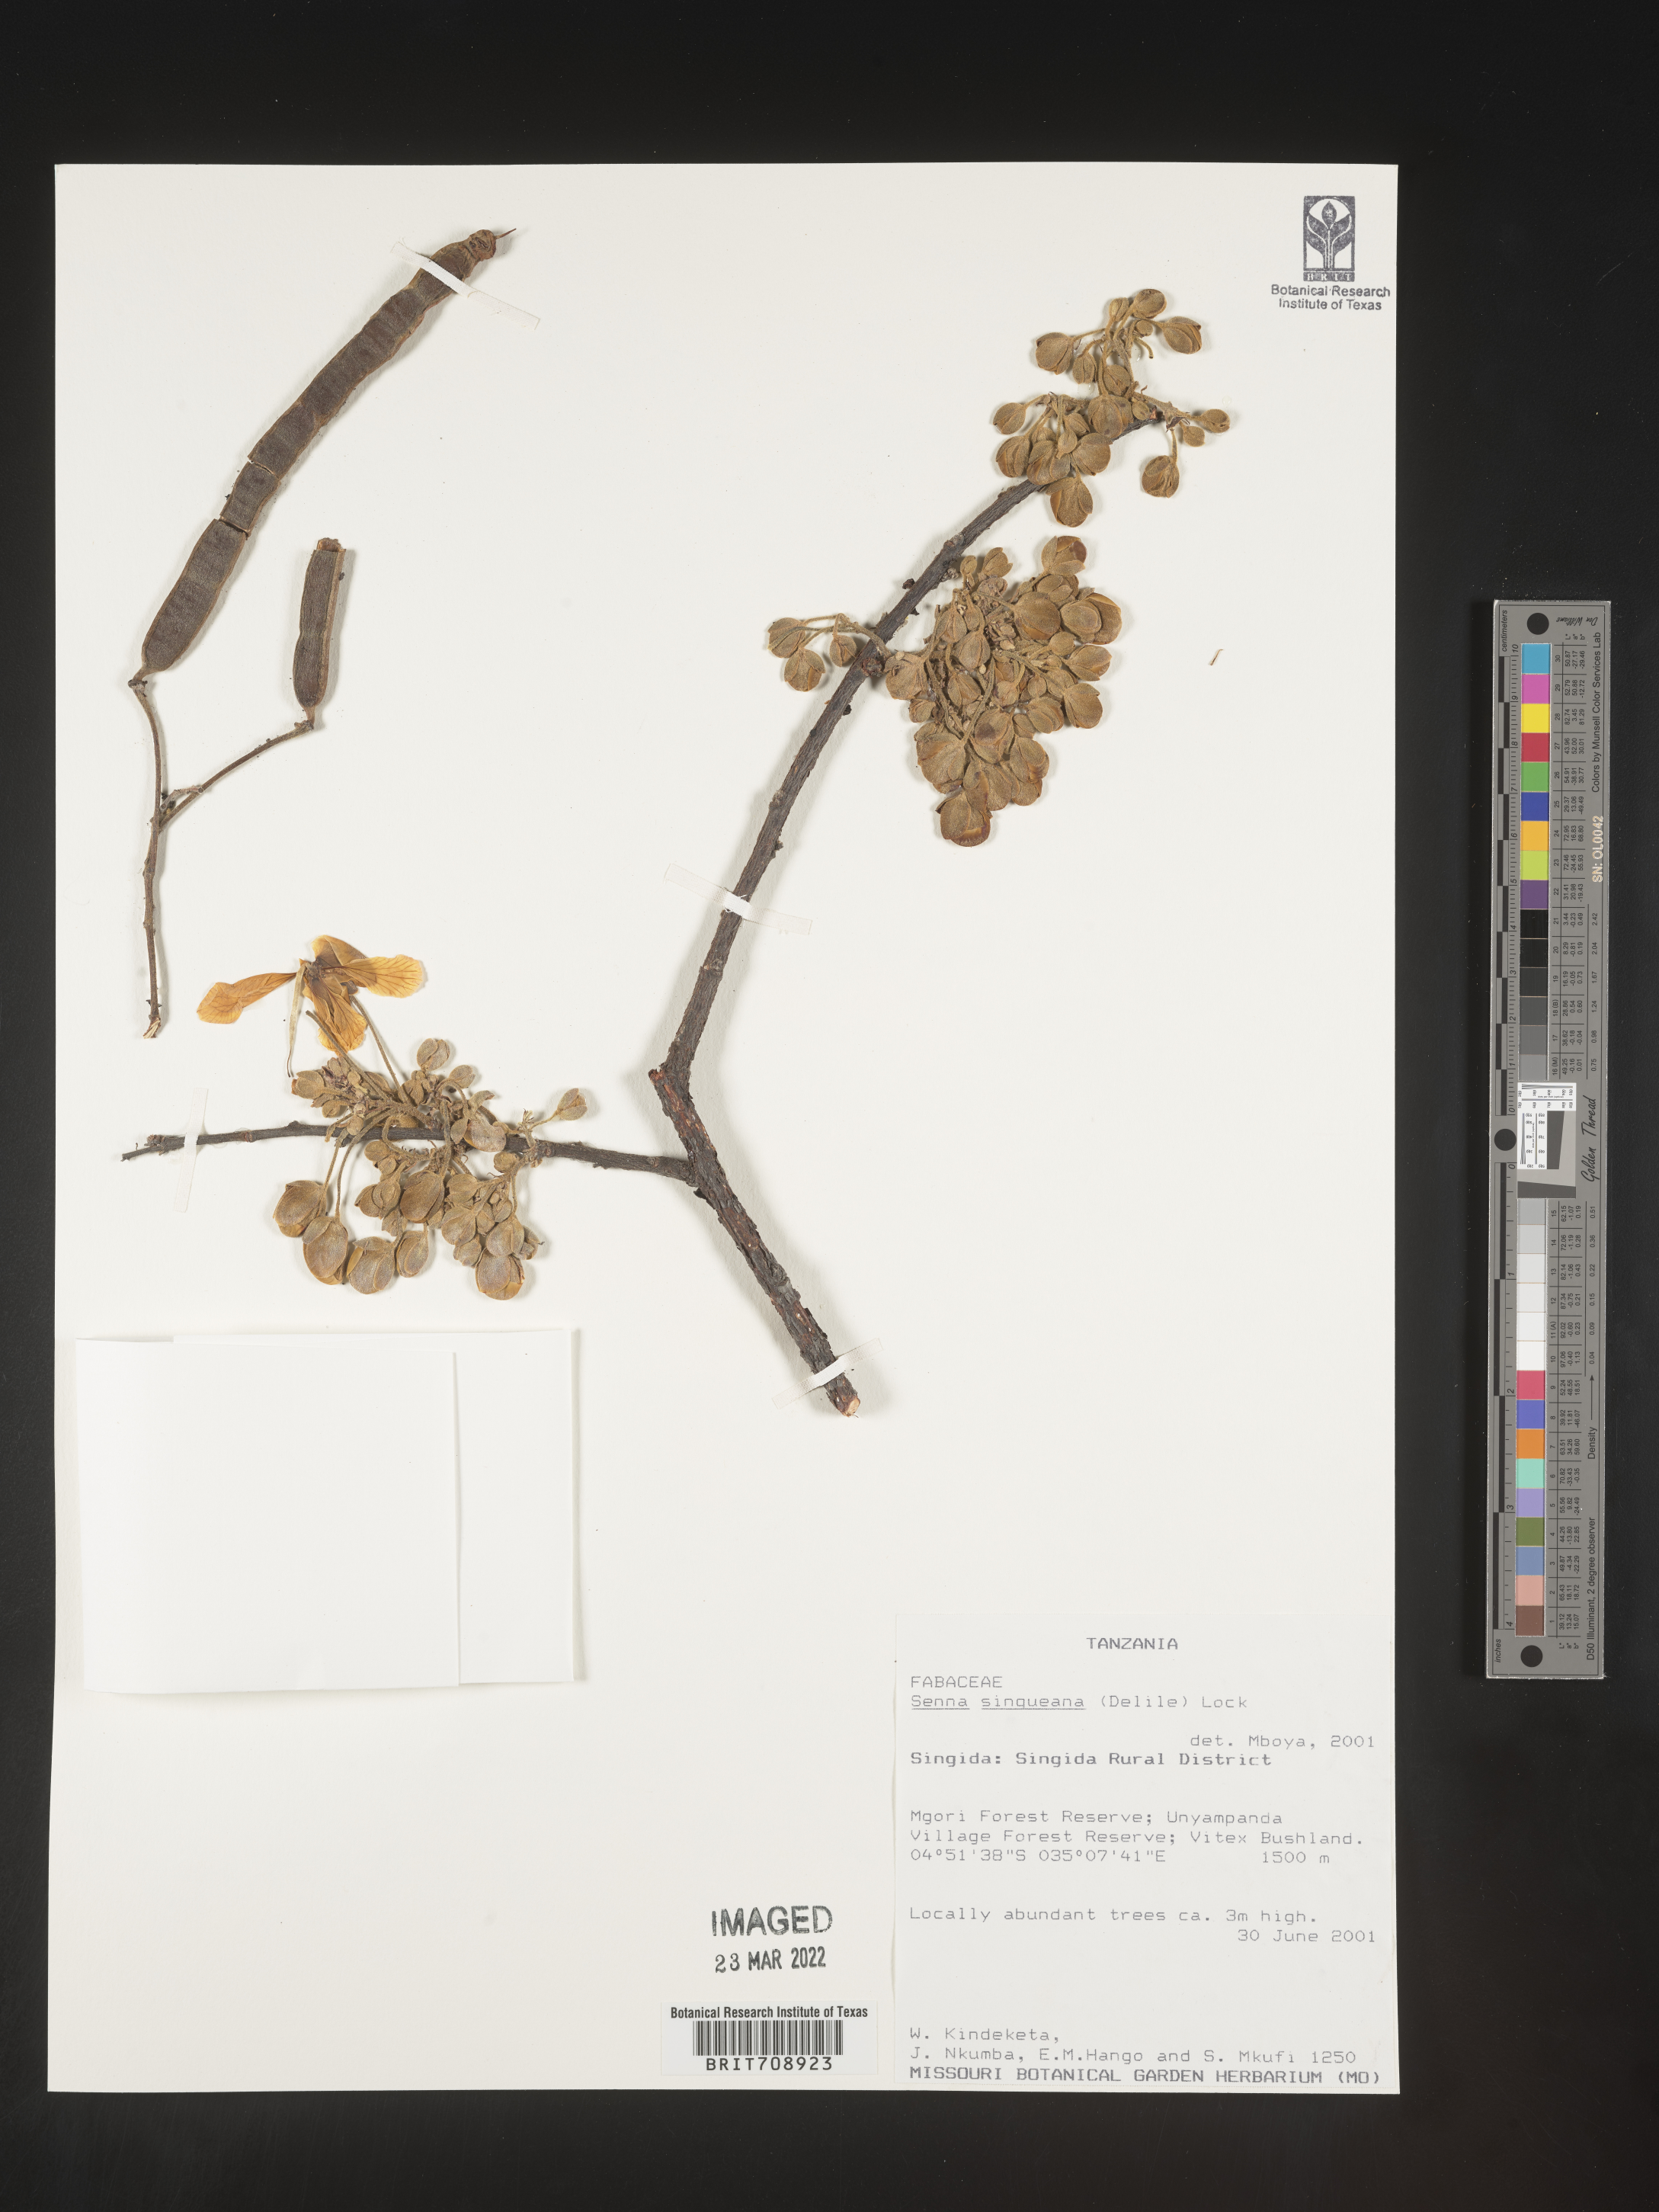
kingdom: Plantae
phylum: Tracheophyta
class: Magnoliopsida
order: Fabales
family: Fabaceae
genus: Senna
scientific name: Senna
